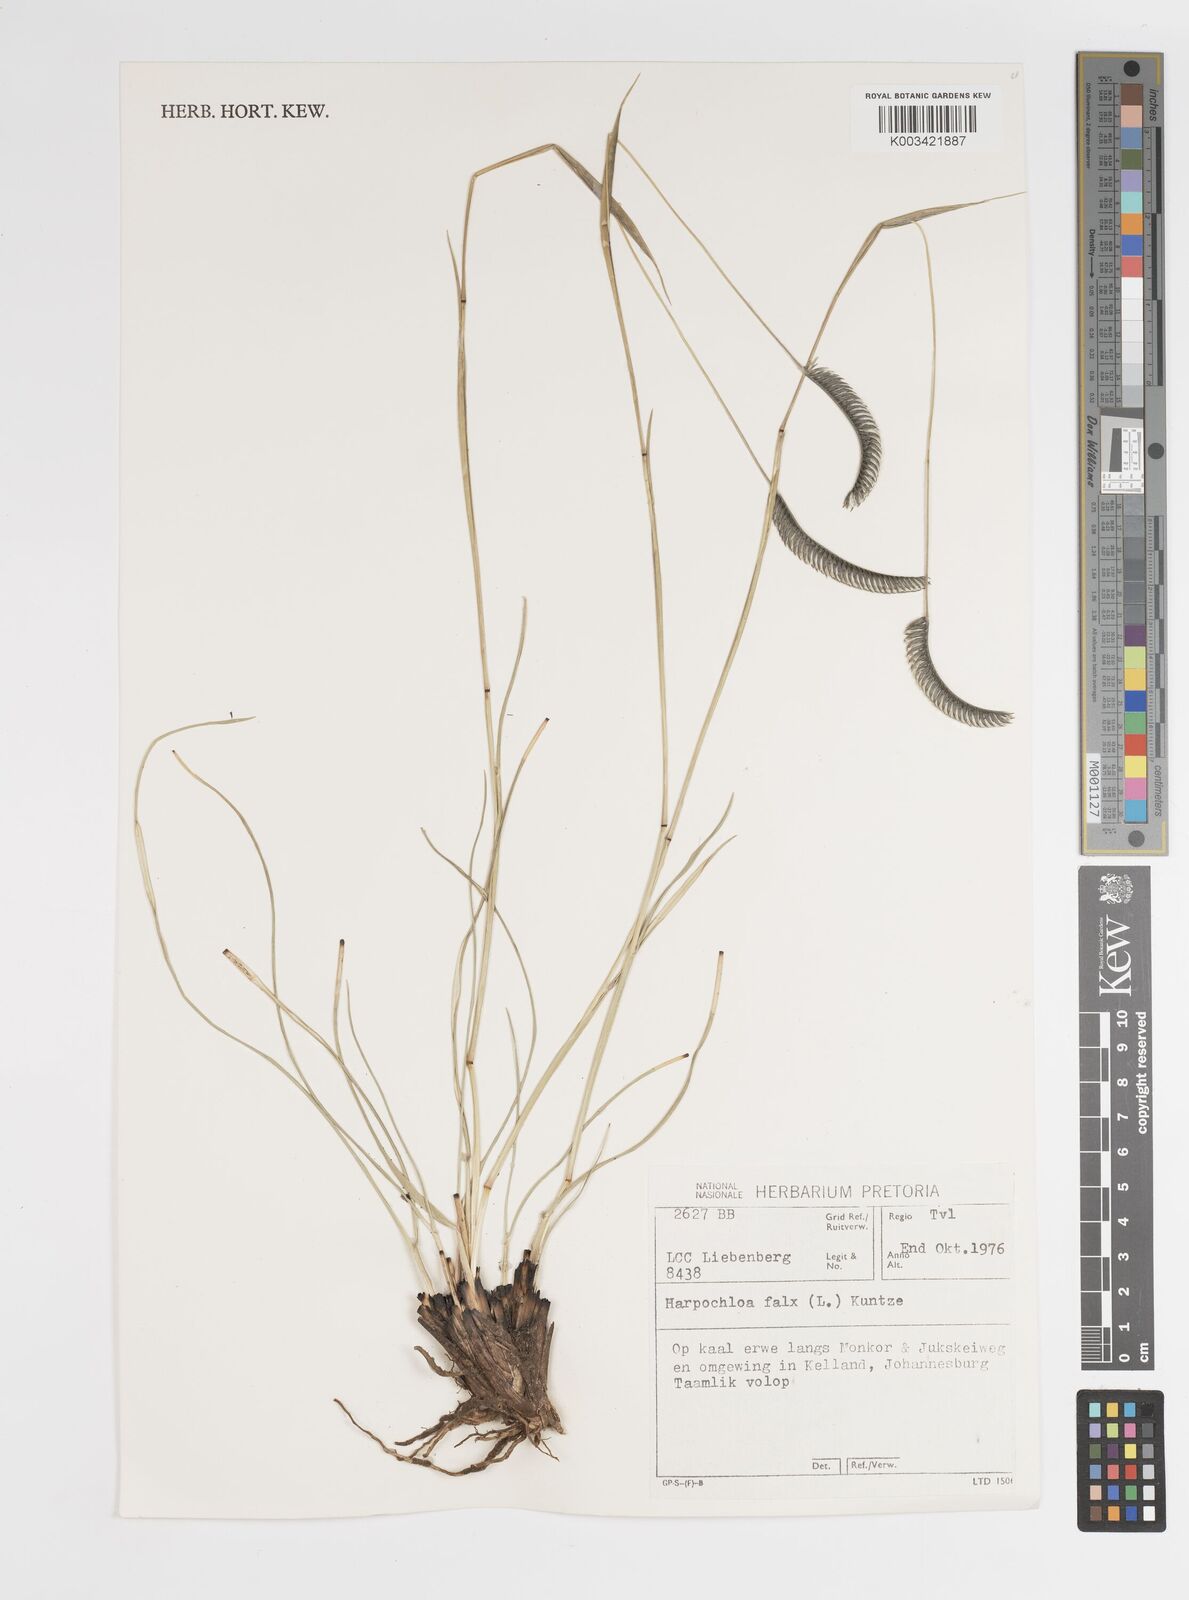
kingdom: Plantae
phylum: Tracheophyta
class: Liliopsida
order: Poales
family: Poaceae
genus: Harpochloa
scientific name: Harpochloa falx
